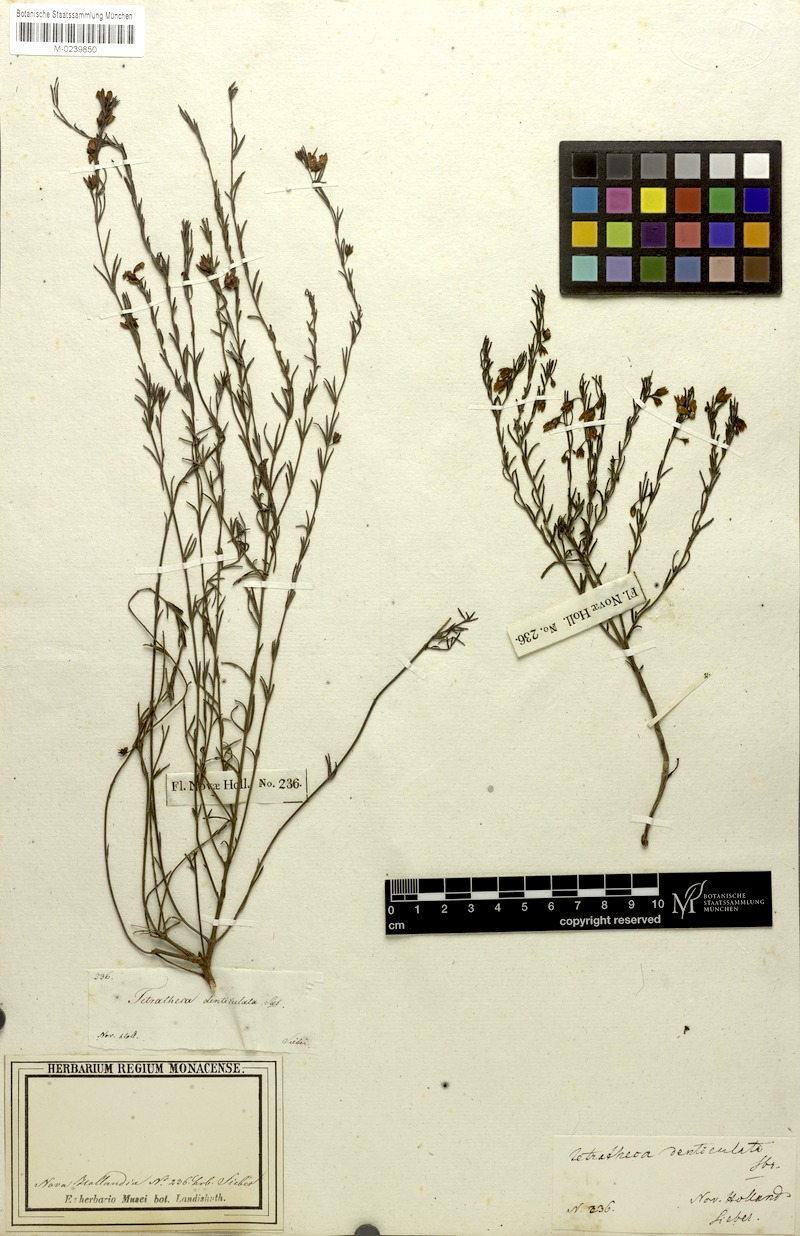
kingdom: Plantae
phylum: Tracheophyta
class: Magnoliopsida
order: Oxalidales
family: Elaeocarpaceae
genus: Tetratheca
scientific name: Tetratheca glandulosa
